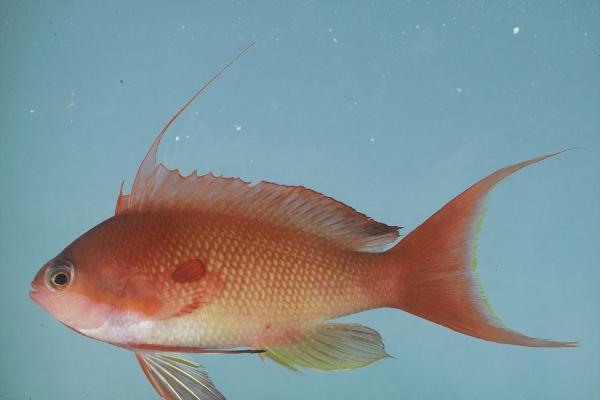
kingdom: Animalia
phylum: Chordata
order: Perciformes
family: Serranidae
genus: Pseudanthias
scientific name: Pseudanthias squamipinnis
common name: Scalefin anthias
